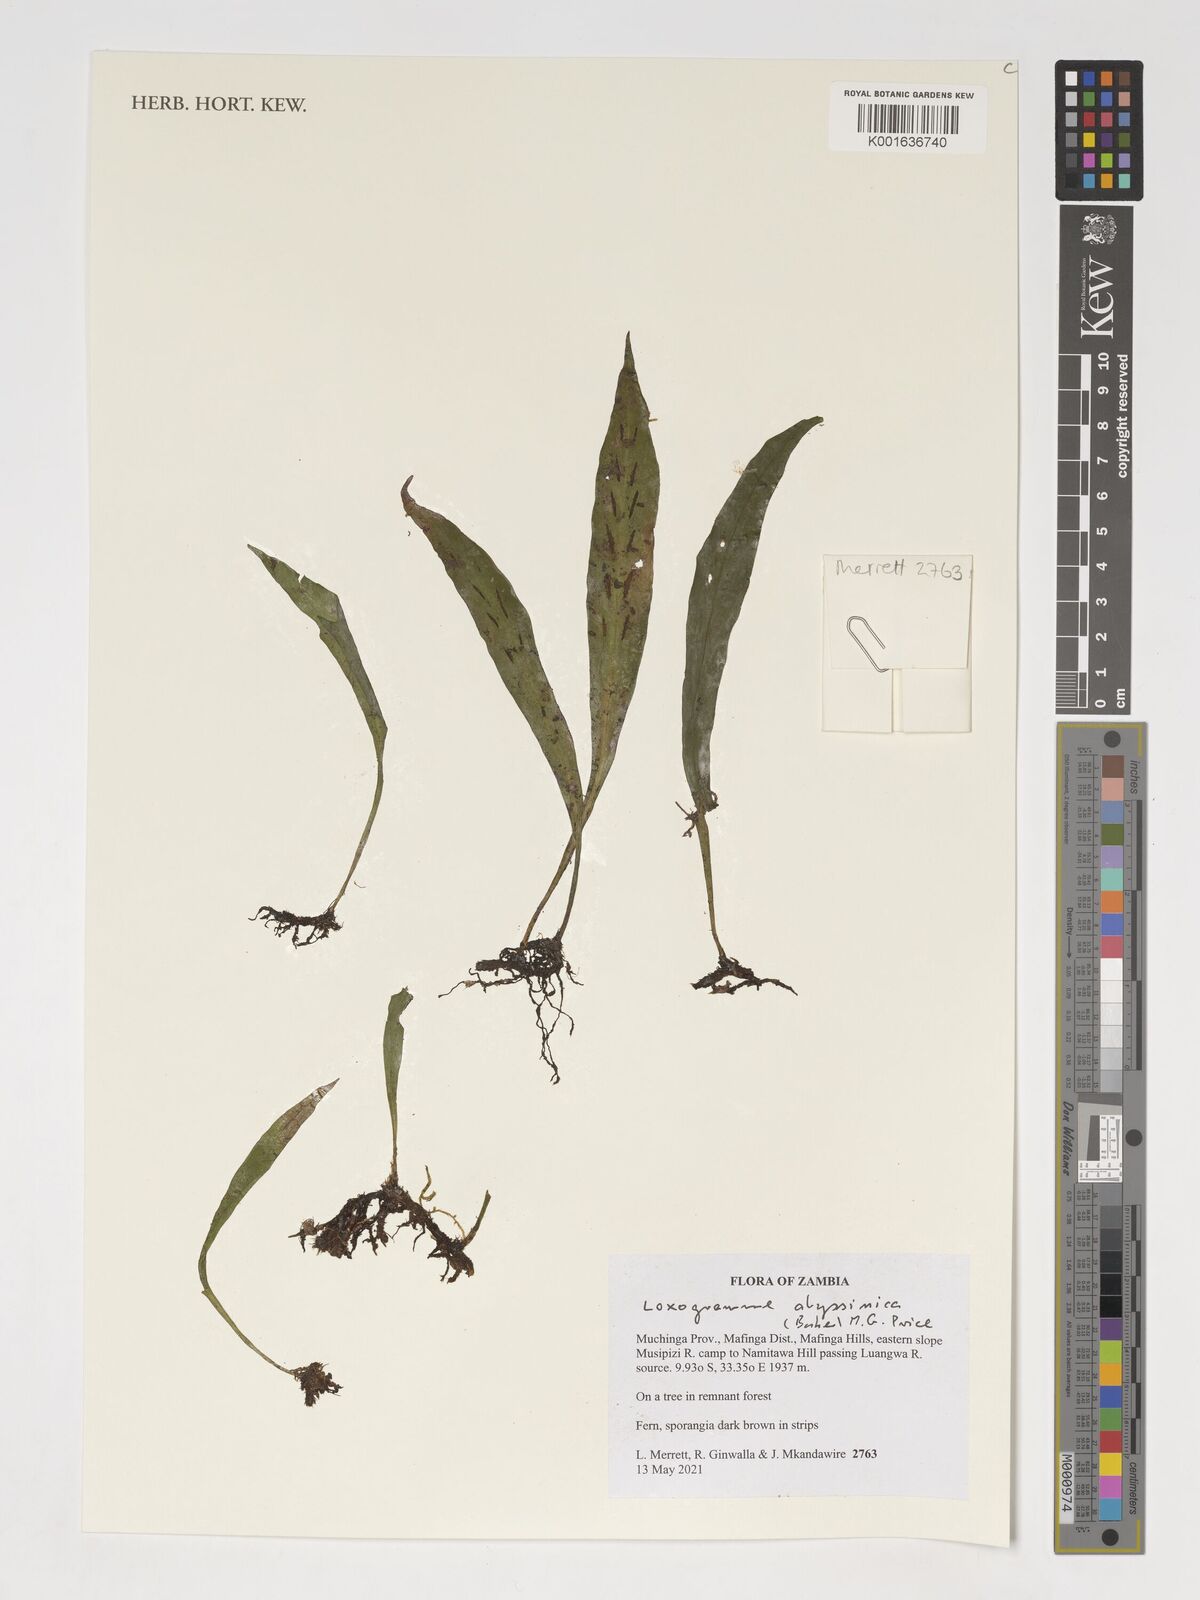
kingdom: Plantae
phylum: Tracheophyta
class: Polypodiopsida
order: Polypodiales
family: Polypodiaceae
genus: Loxogramme
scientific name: Loxogramme abyssinica
